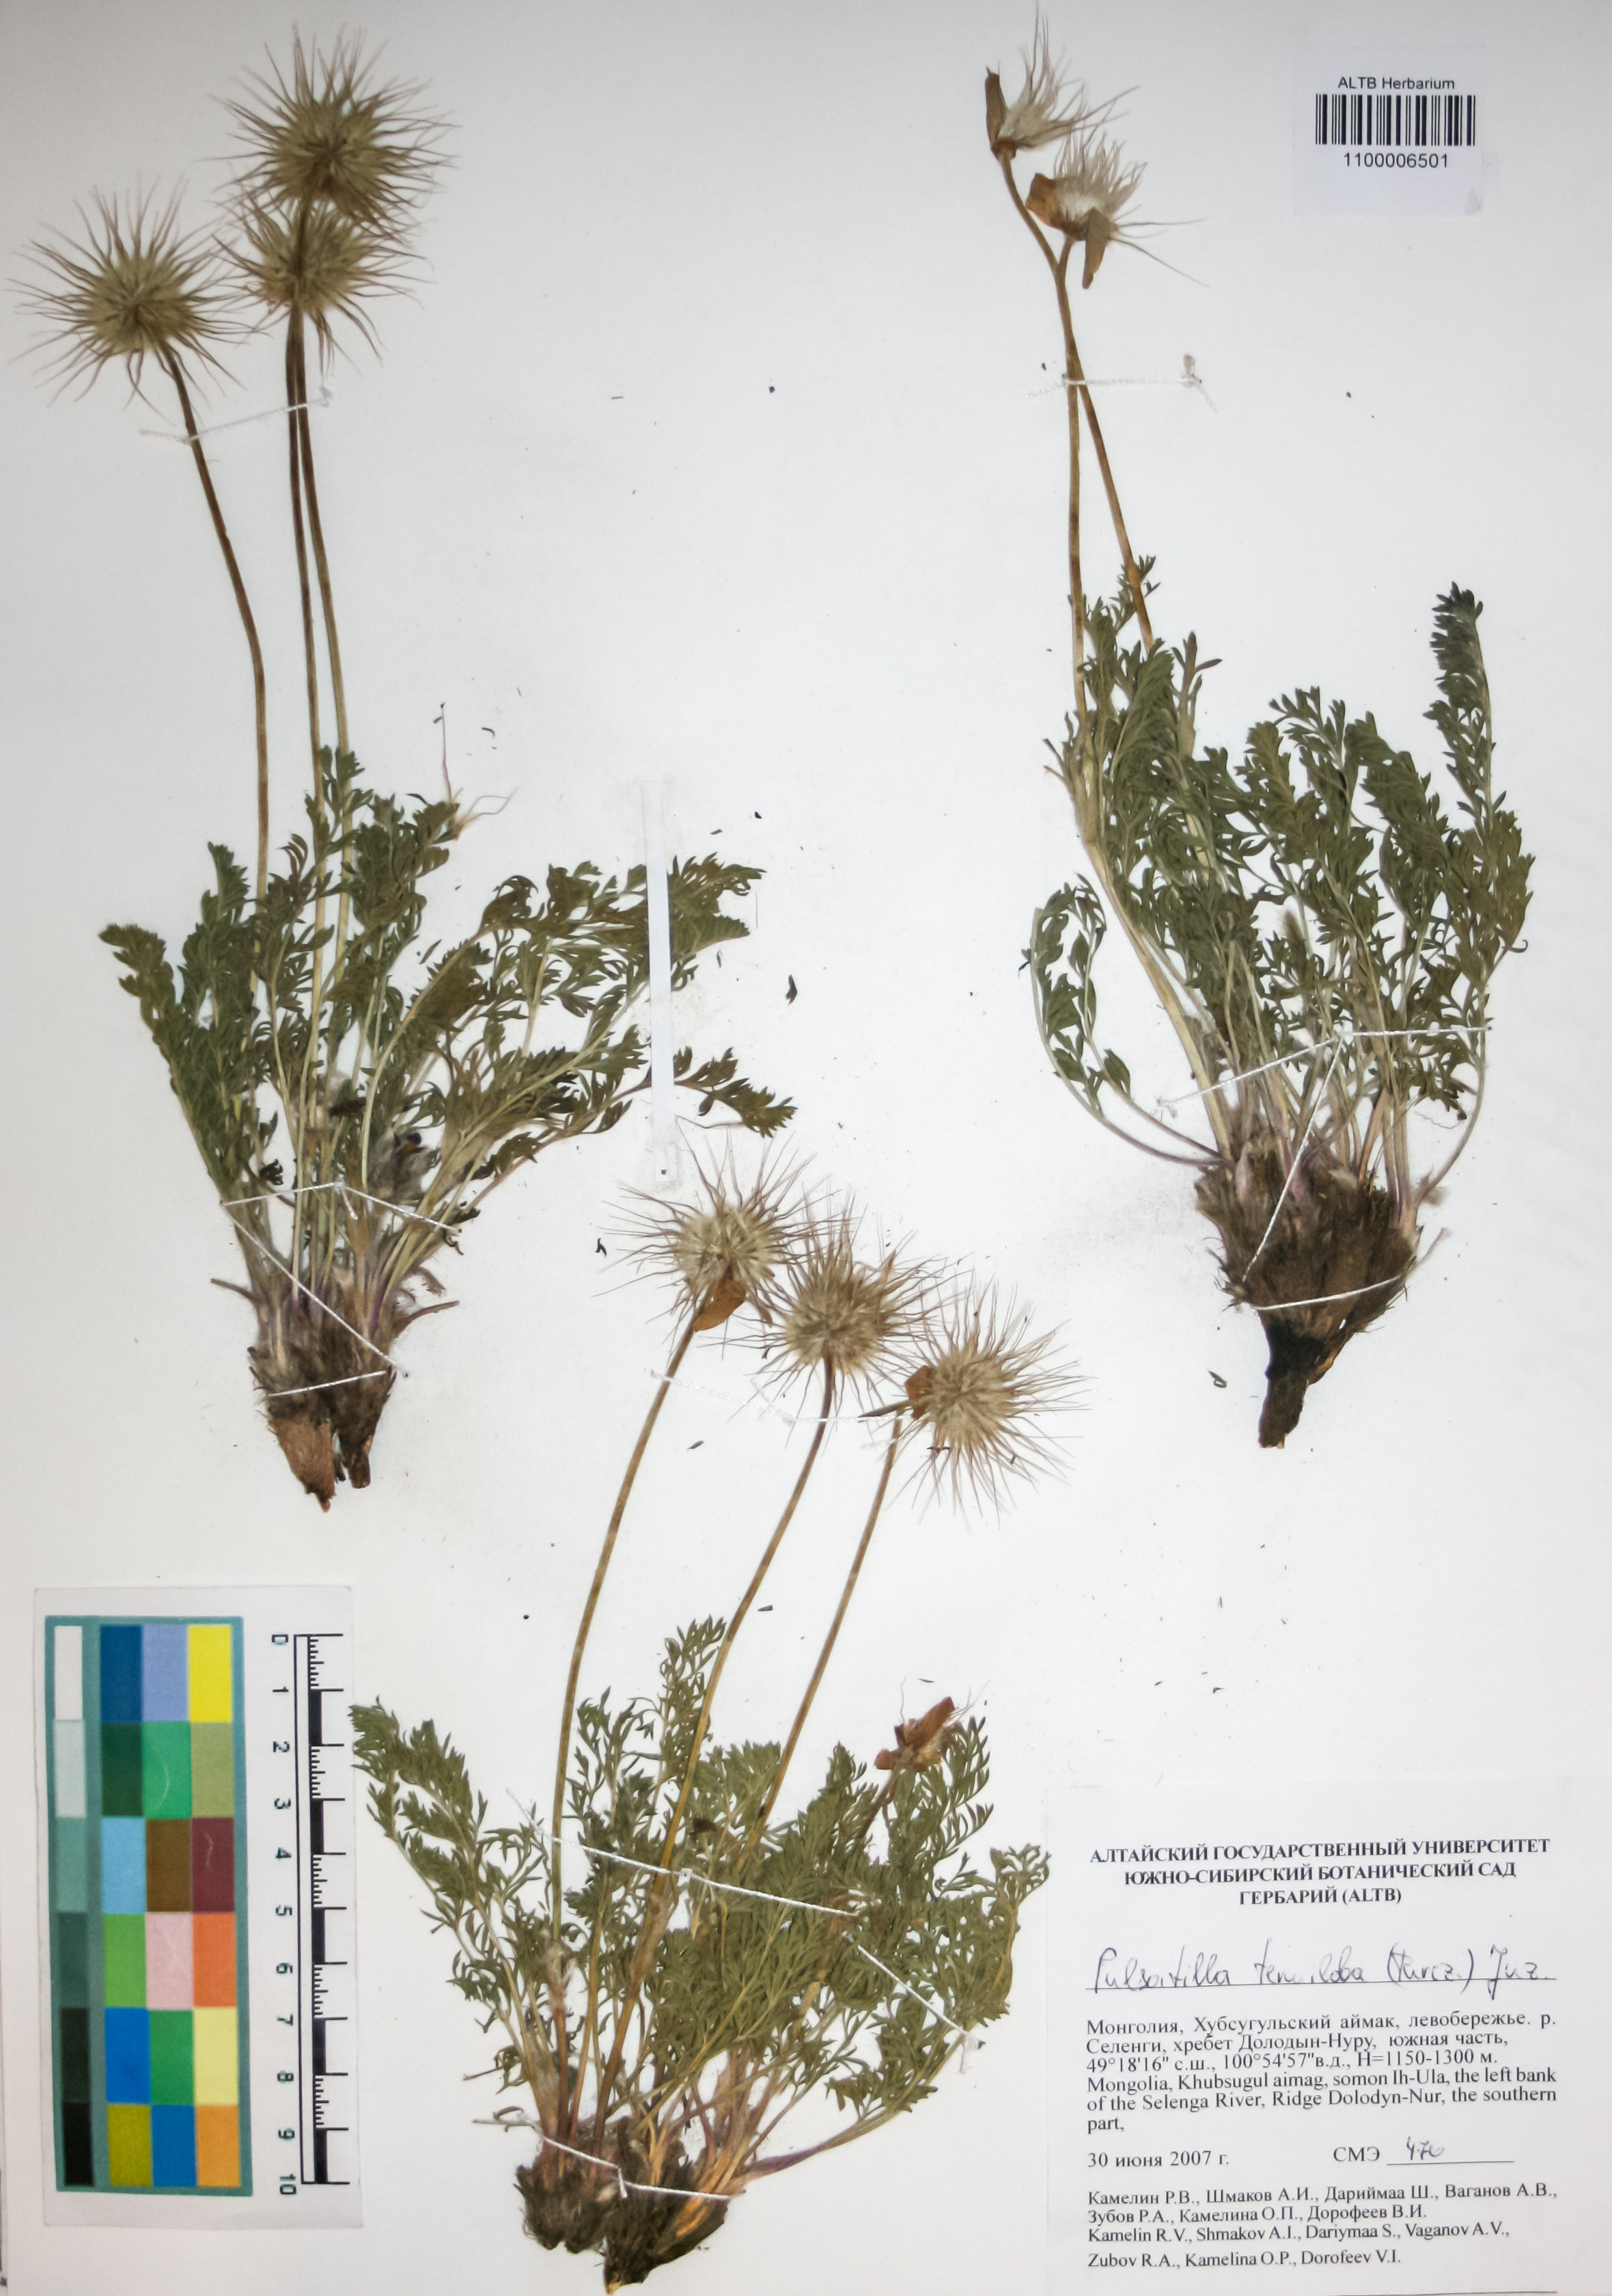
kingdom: Plantae
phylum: Tracheophyta
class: Magnoliopsida
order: Ranunculales
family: Ranunculaceae
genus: Pulsatilla
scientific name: Pulsatilla tenuiloba
